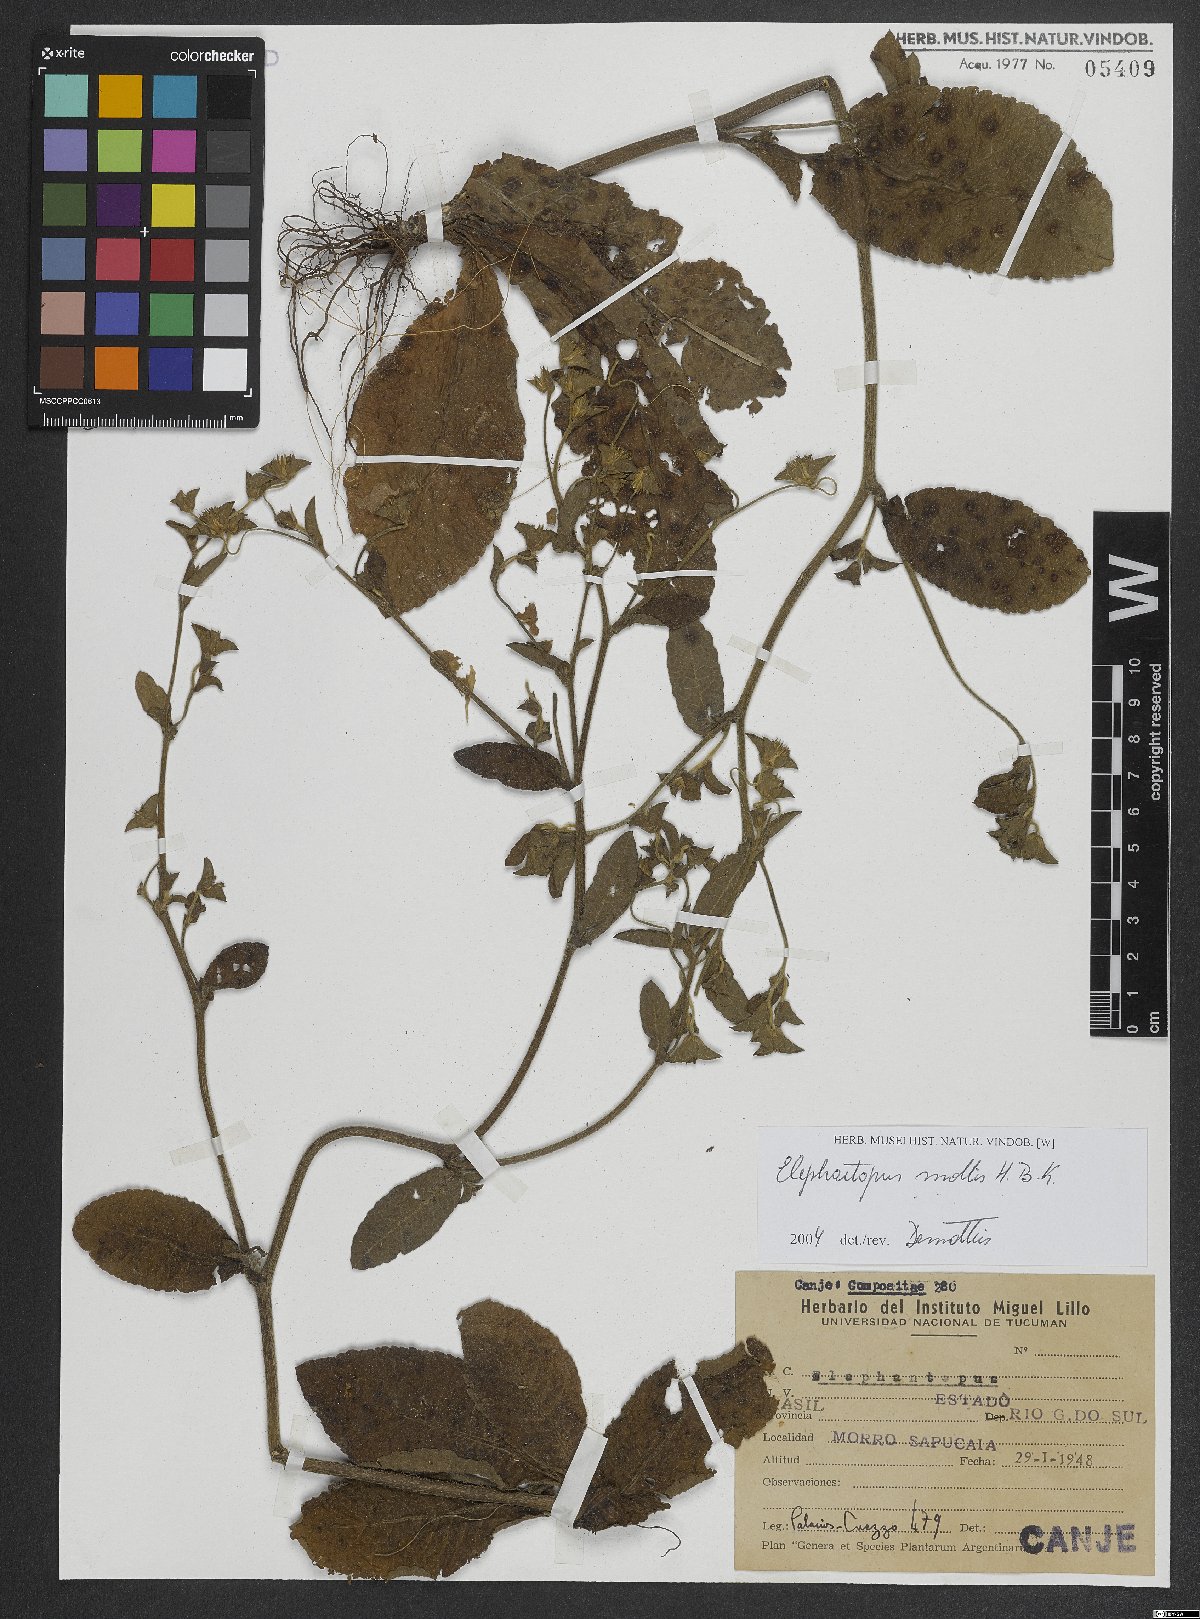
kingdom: Plantae
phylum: Tracheophyta
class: Magnoliopsida
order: Asterales
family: Asteraceae
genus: Elephantopus
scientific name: Elephantopus mollis
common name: Soft elephantsfoot
